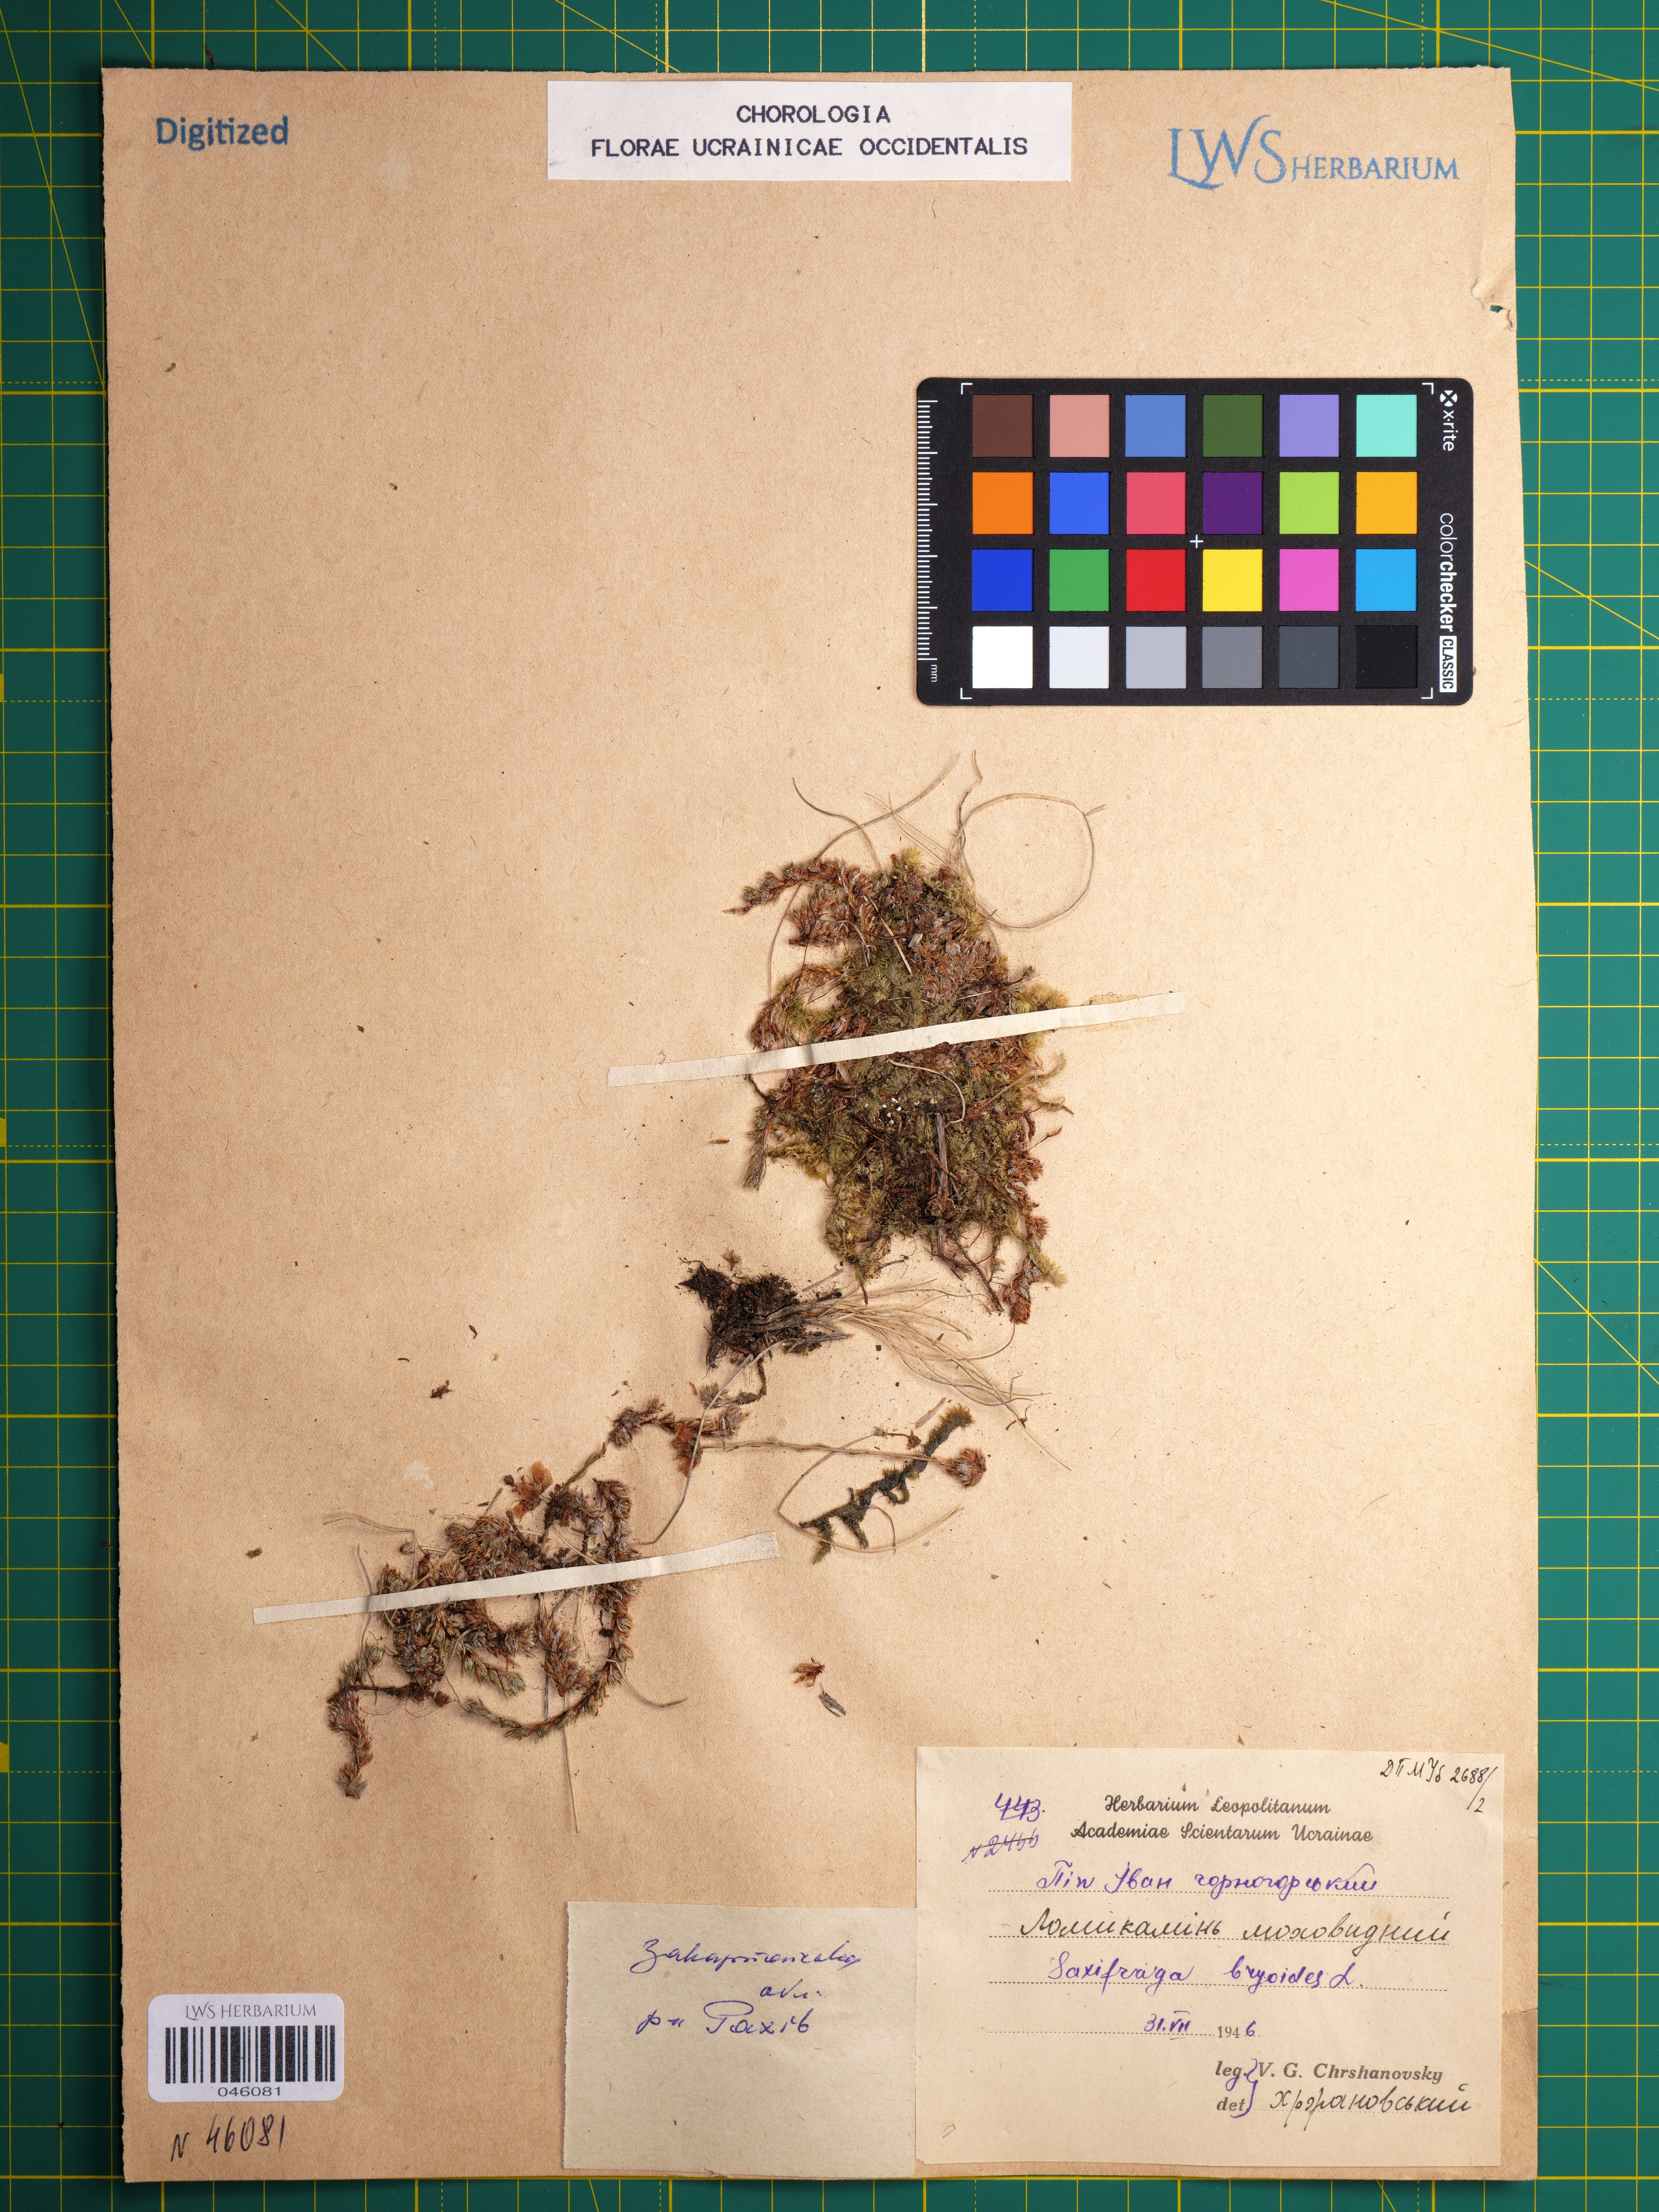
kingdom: Plantae
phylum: Tracheophyta
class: Magnoliopsida
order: Saxifragales
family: Saxifragaceae
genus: Saxifraga
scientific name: Saxifraga bryoides
